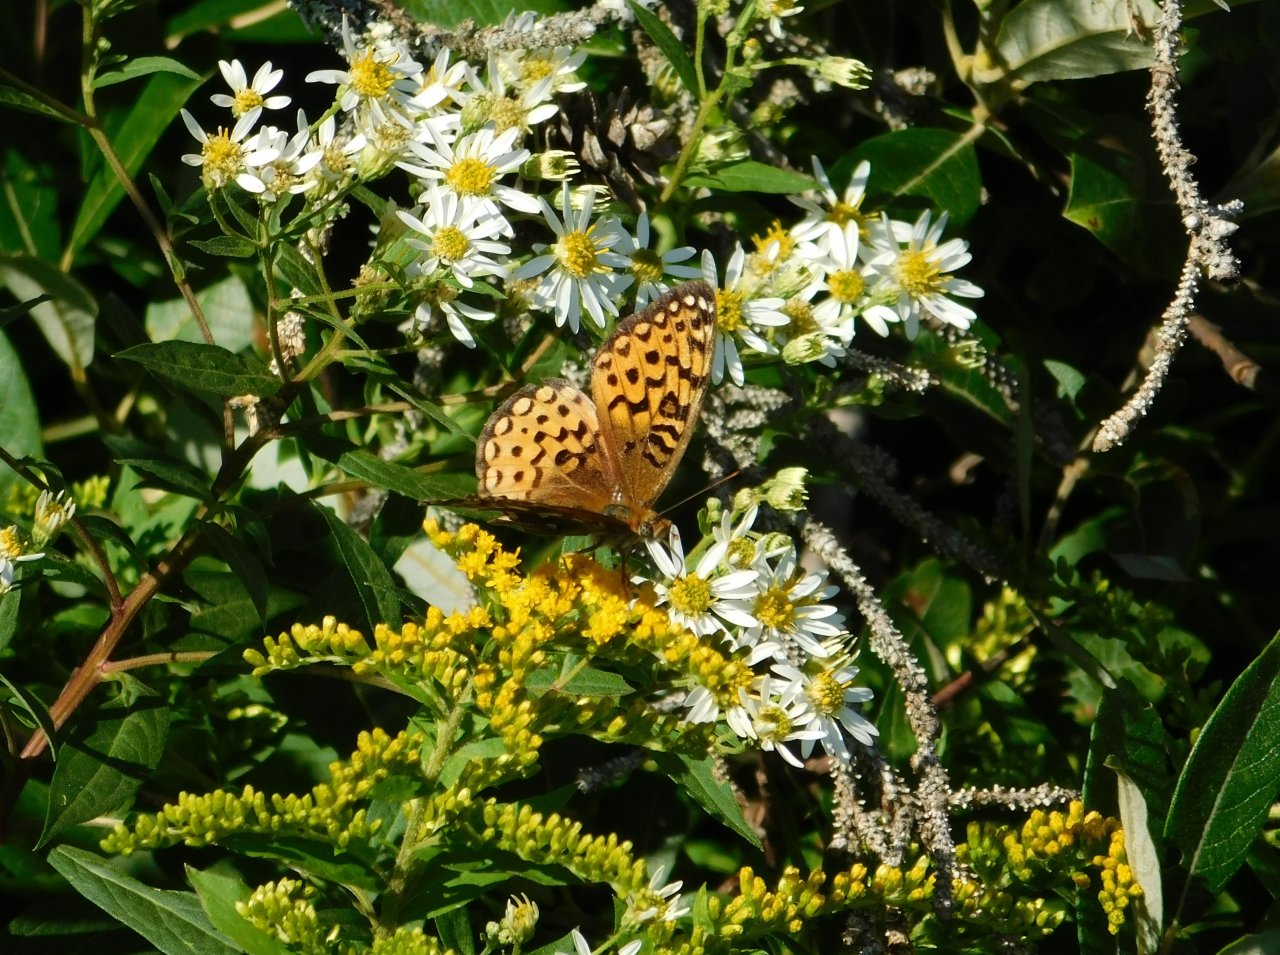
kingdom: Animalia
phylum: Arthropoda
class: Insecta
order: Lepidoptera
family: Nymphalidae
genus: Speyeria
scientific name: Speyeria atlantis
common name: Atlantis Fritillary
